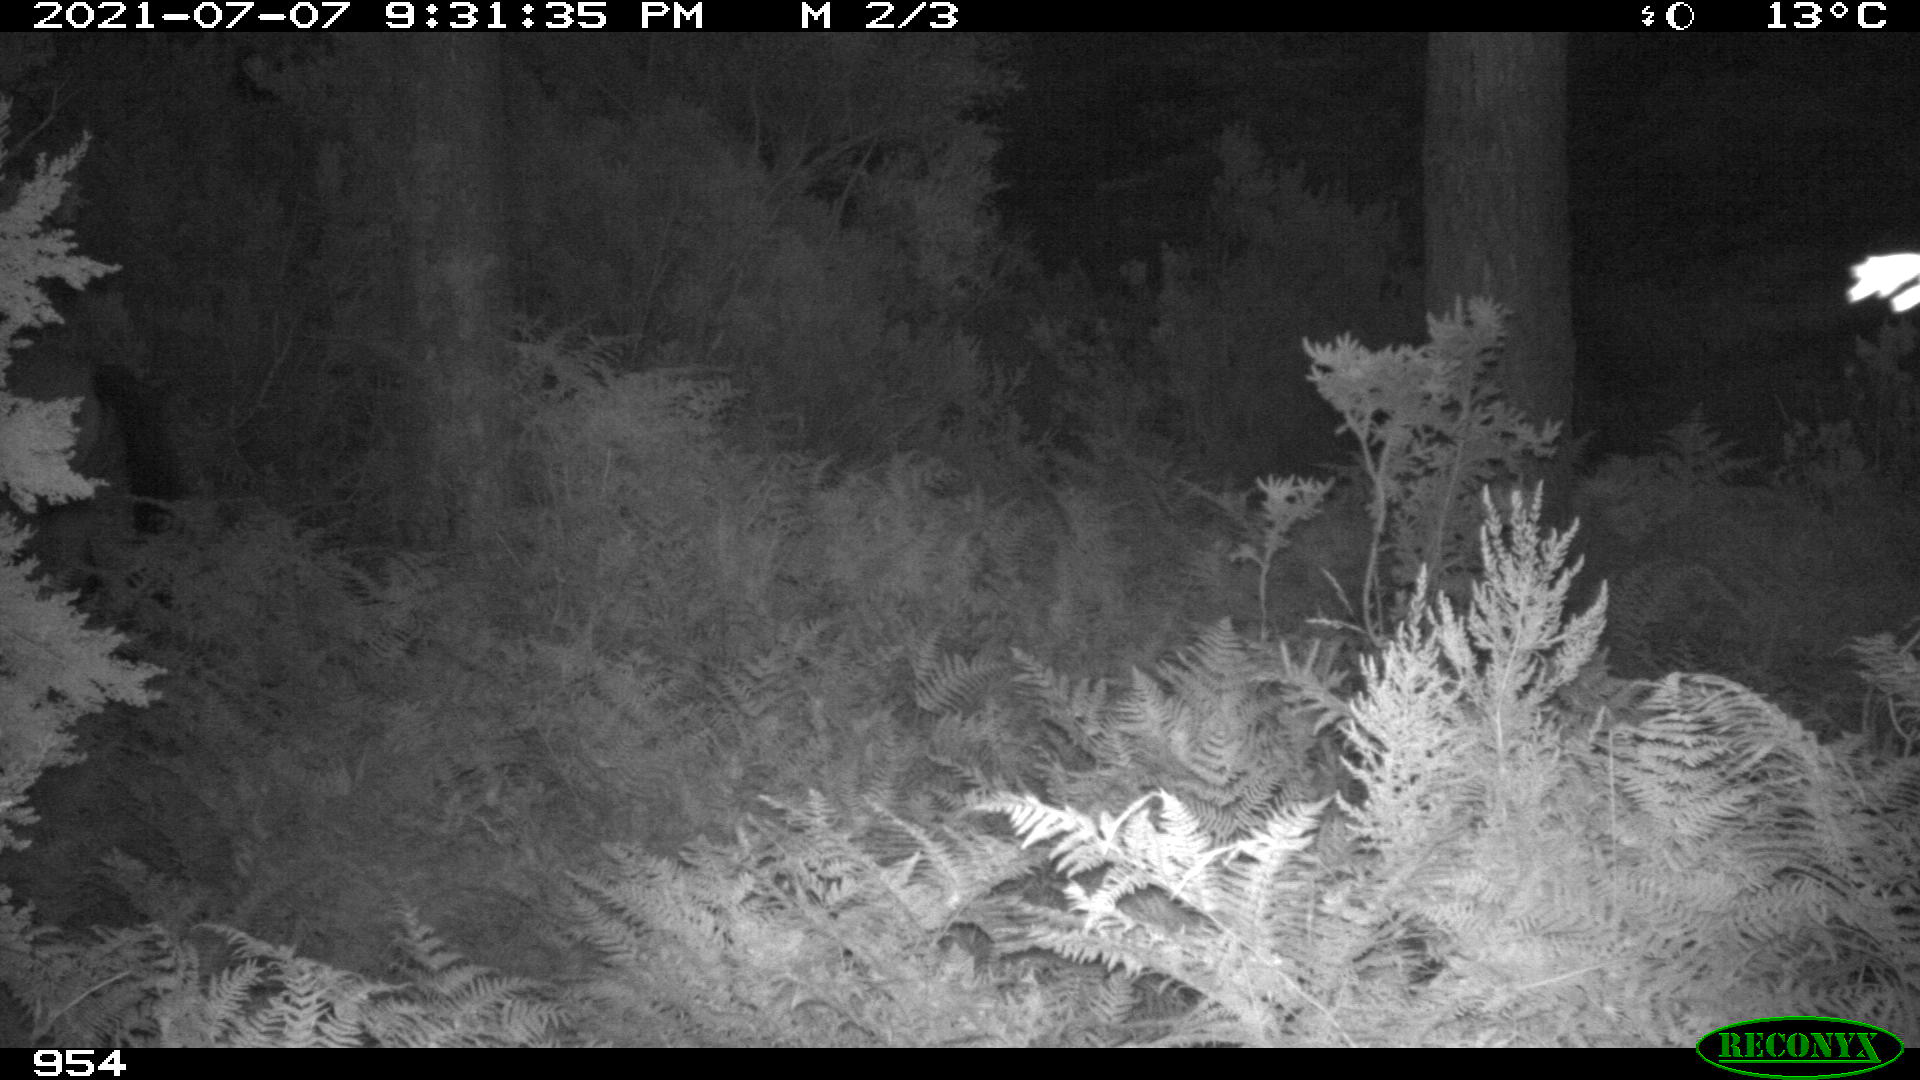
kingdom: Animalia
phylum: Chordata
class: Mammalia
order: Perissodactyla
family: Equidae
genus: Equus
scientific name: Equus caballus
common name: Horse
